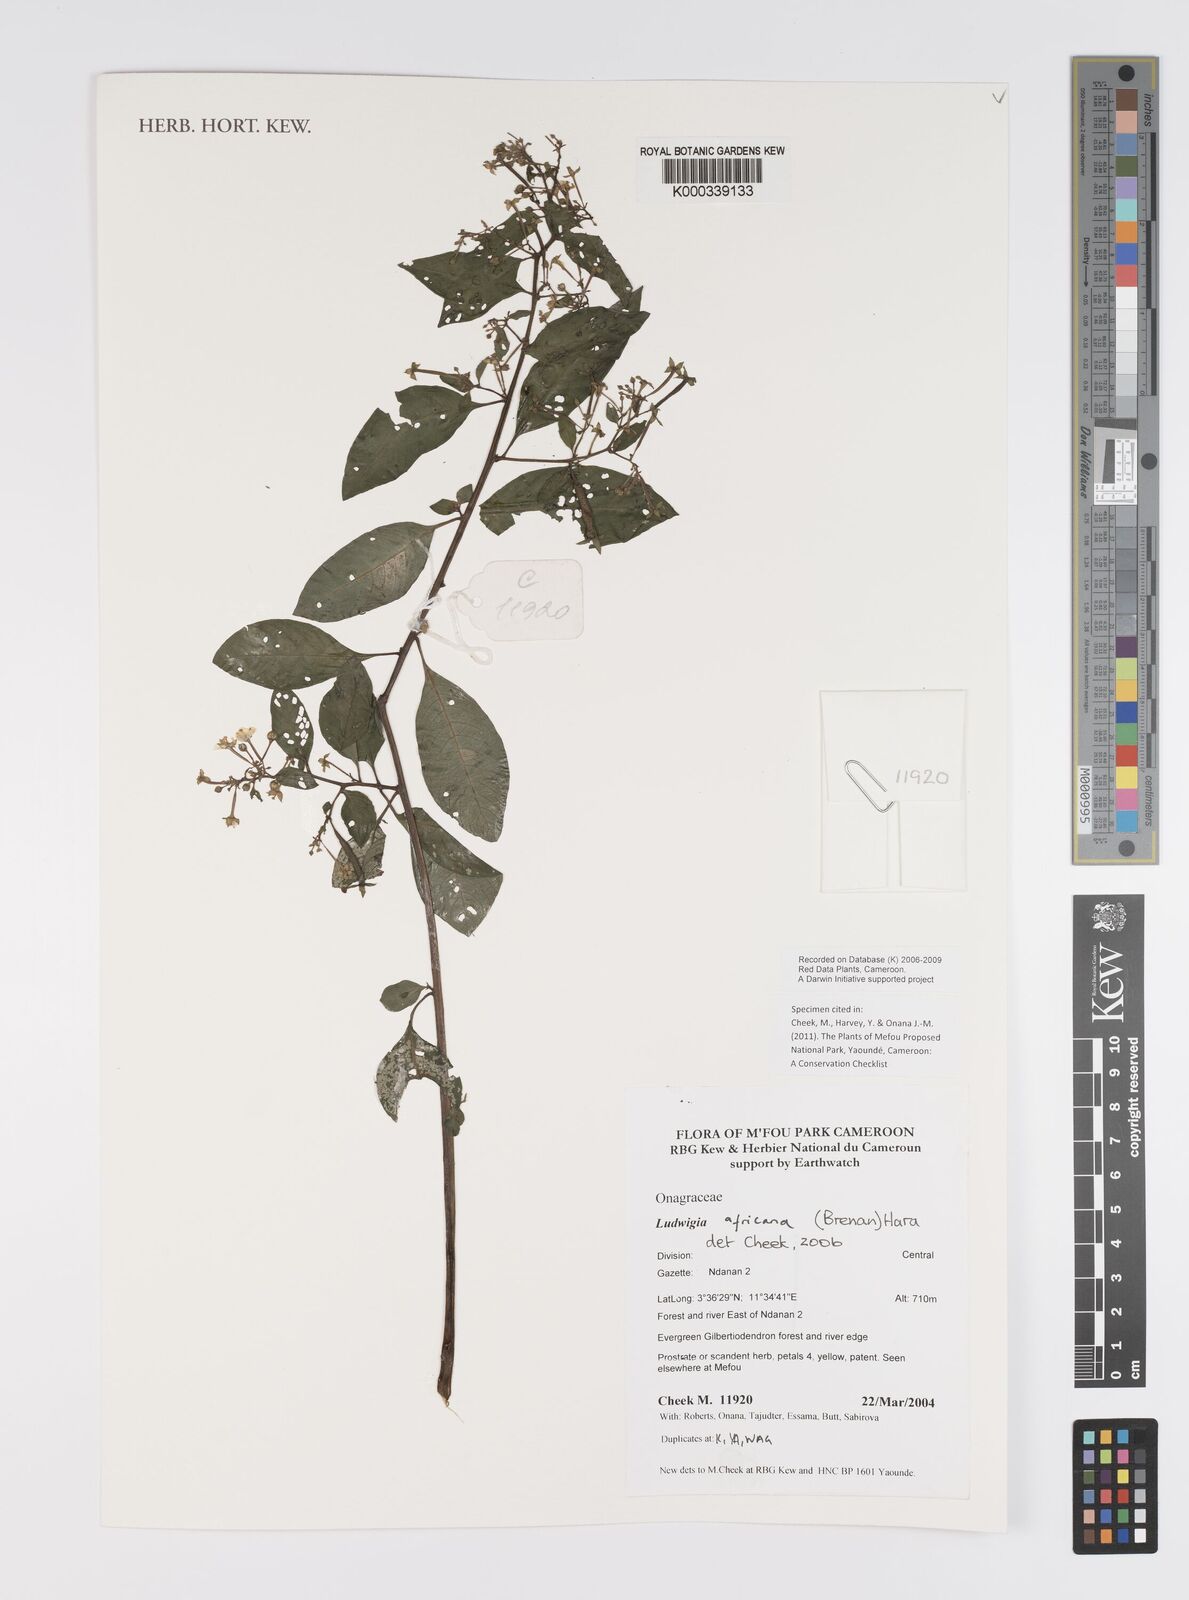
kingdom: Plantae
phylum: Tracheophyta
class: Magnoliopsida
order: Myrtales
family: Onagraceae
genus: Ludwigia
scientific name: Ludwigia africana
